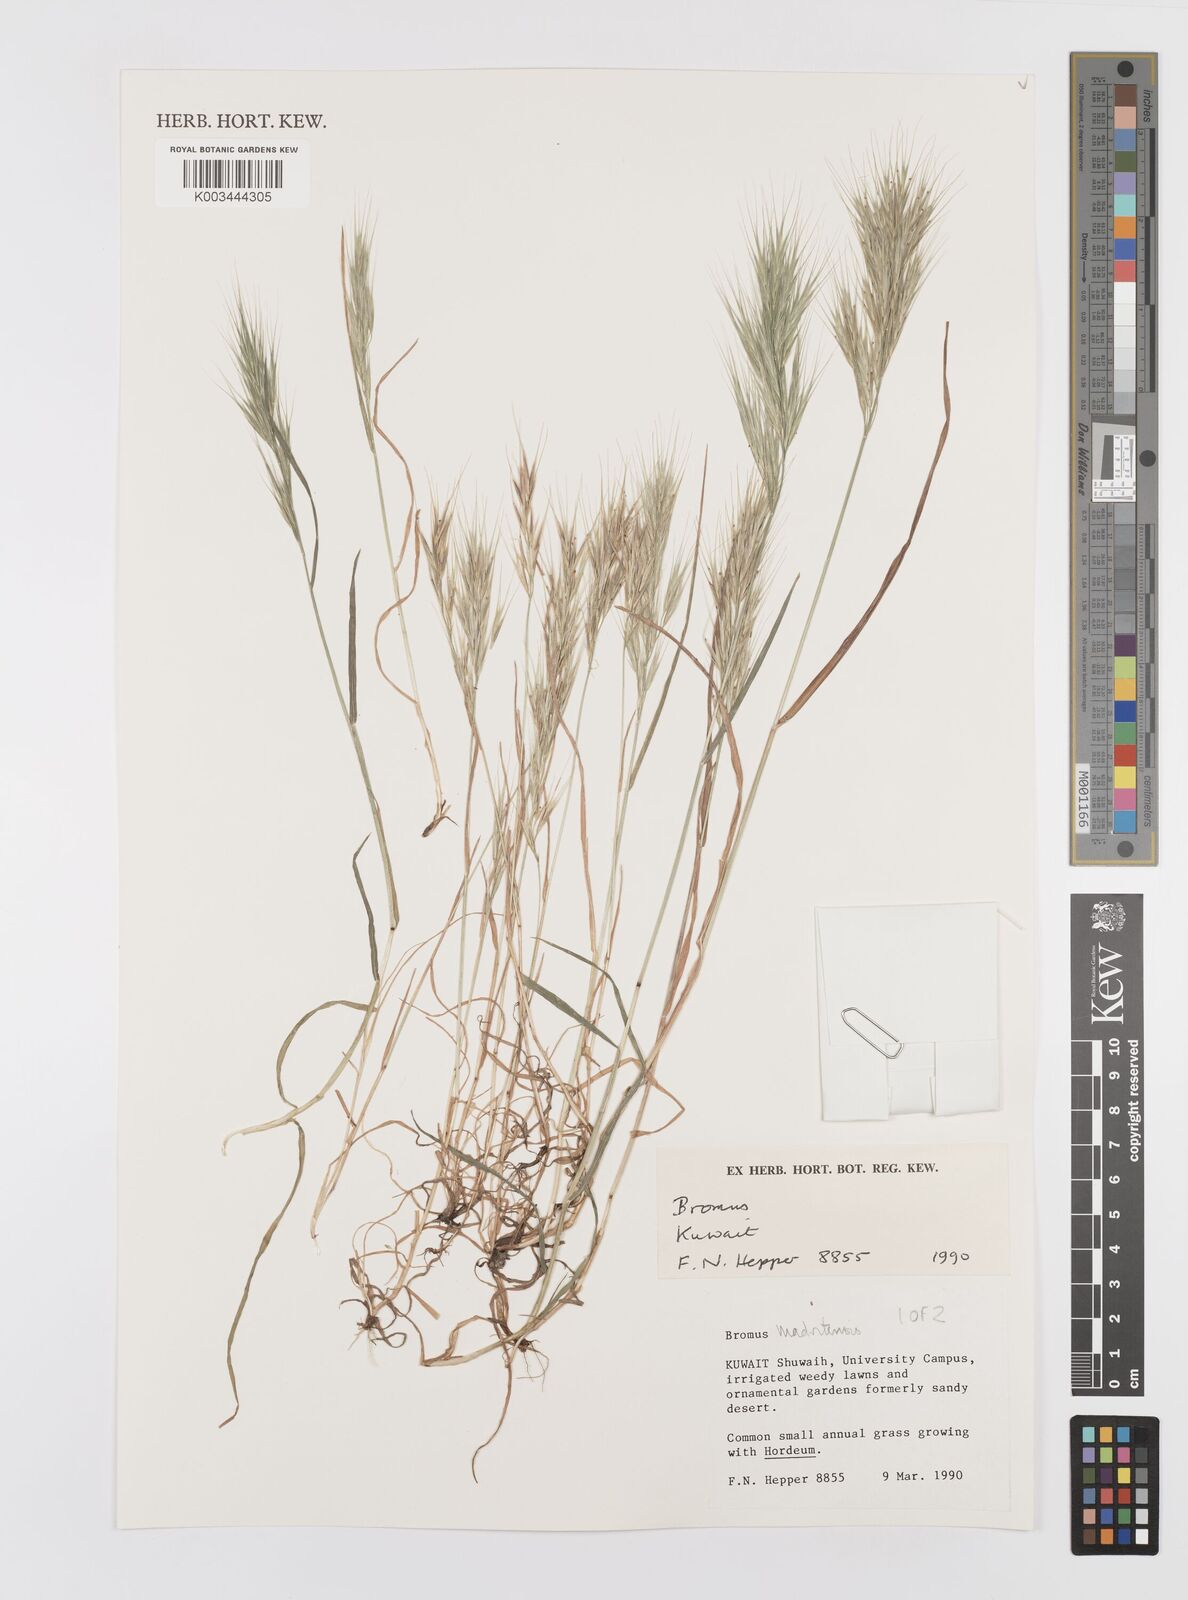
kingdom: Plantae
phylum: Tracheophyta
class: Liliopsida
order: Poales
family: Poaceae
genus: Bromus
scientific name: Bromus madritensis
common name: Compact brome
